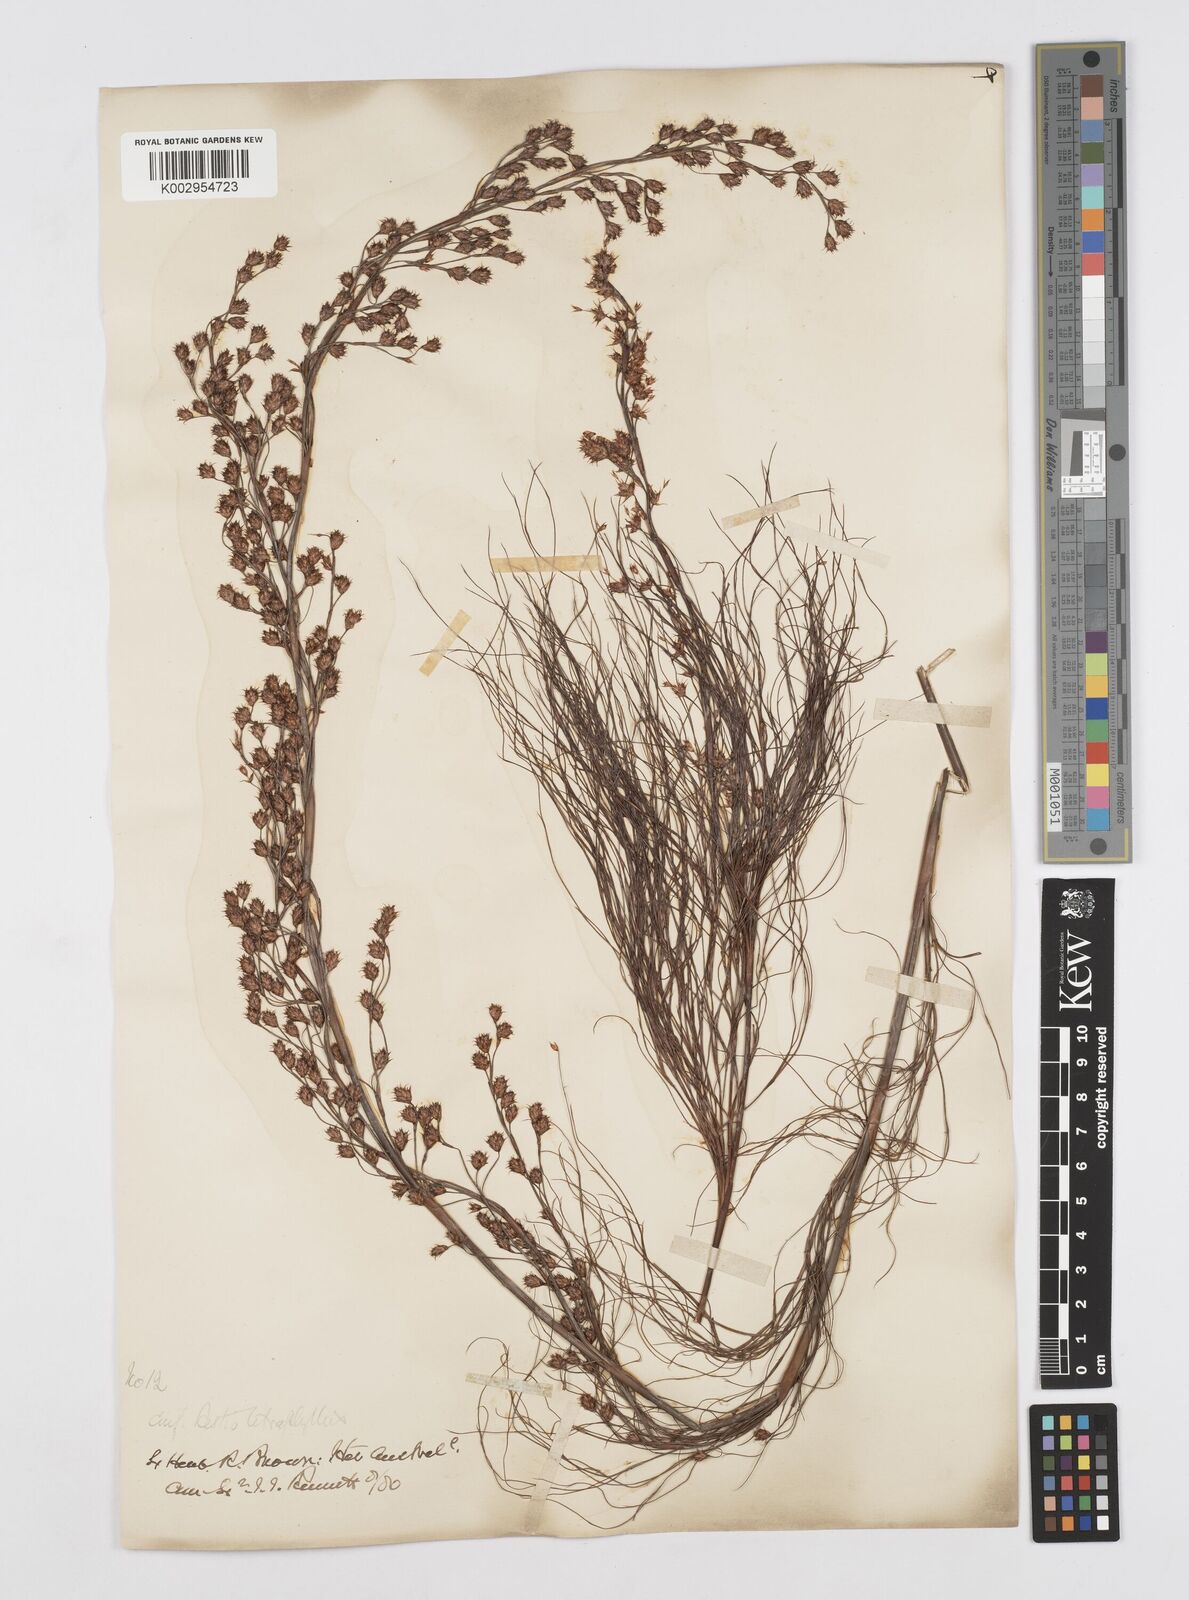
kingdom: Plantae
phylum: Tracheophyta
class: Liliopsida
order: Poales
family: Restionaceae
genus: Baloskion
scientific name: Baloskion tetraphyllum
